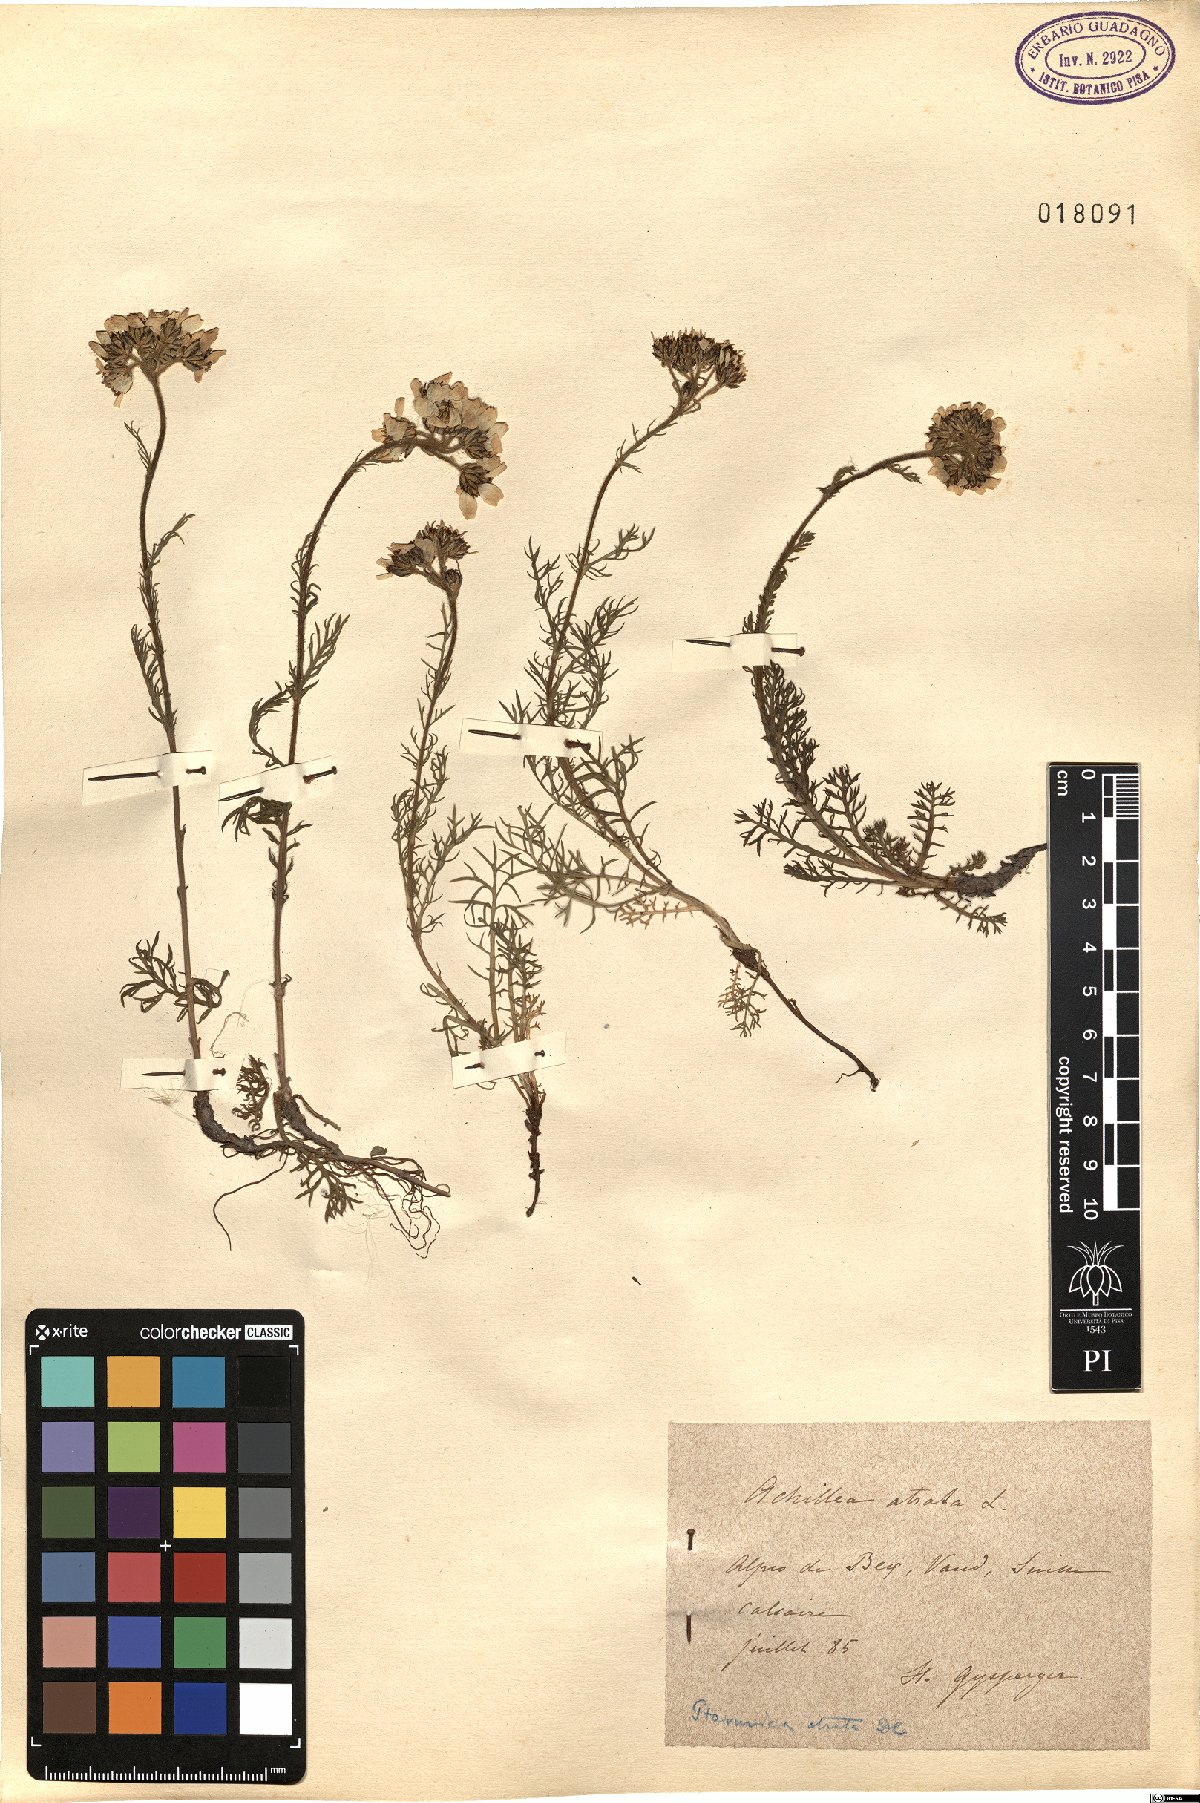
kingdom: Plantae
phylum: Tracheophyta
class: Magnoliopsida
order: Asterales
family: Asteraceae
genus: Achillea
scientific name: Achillea atrata
